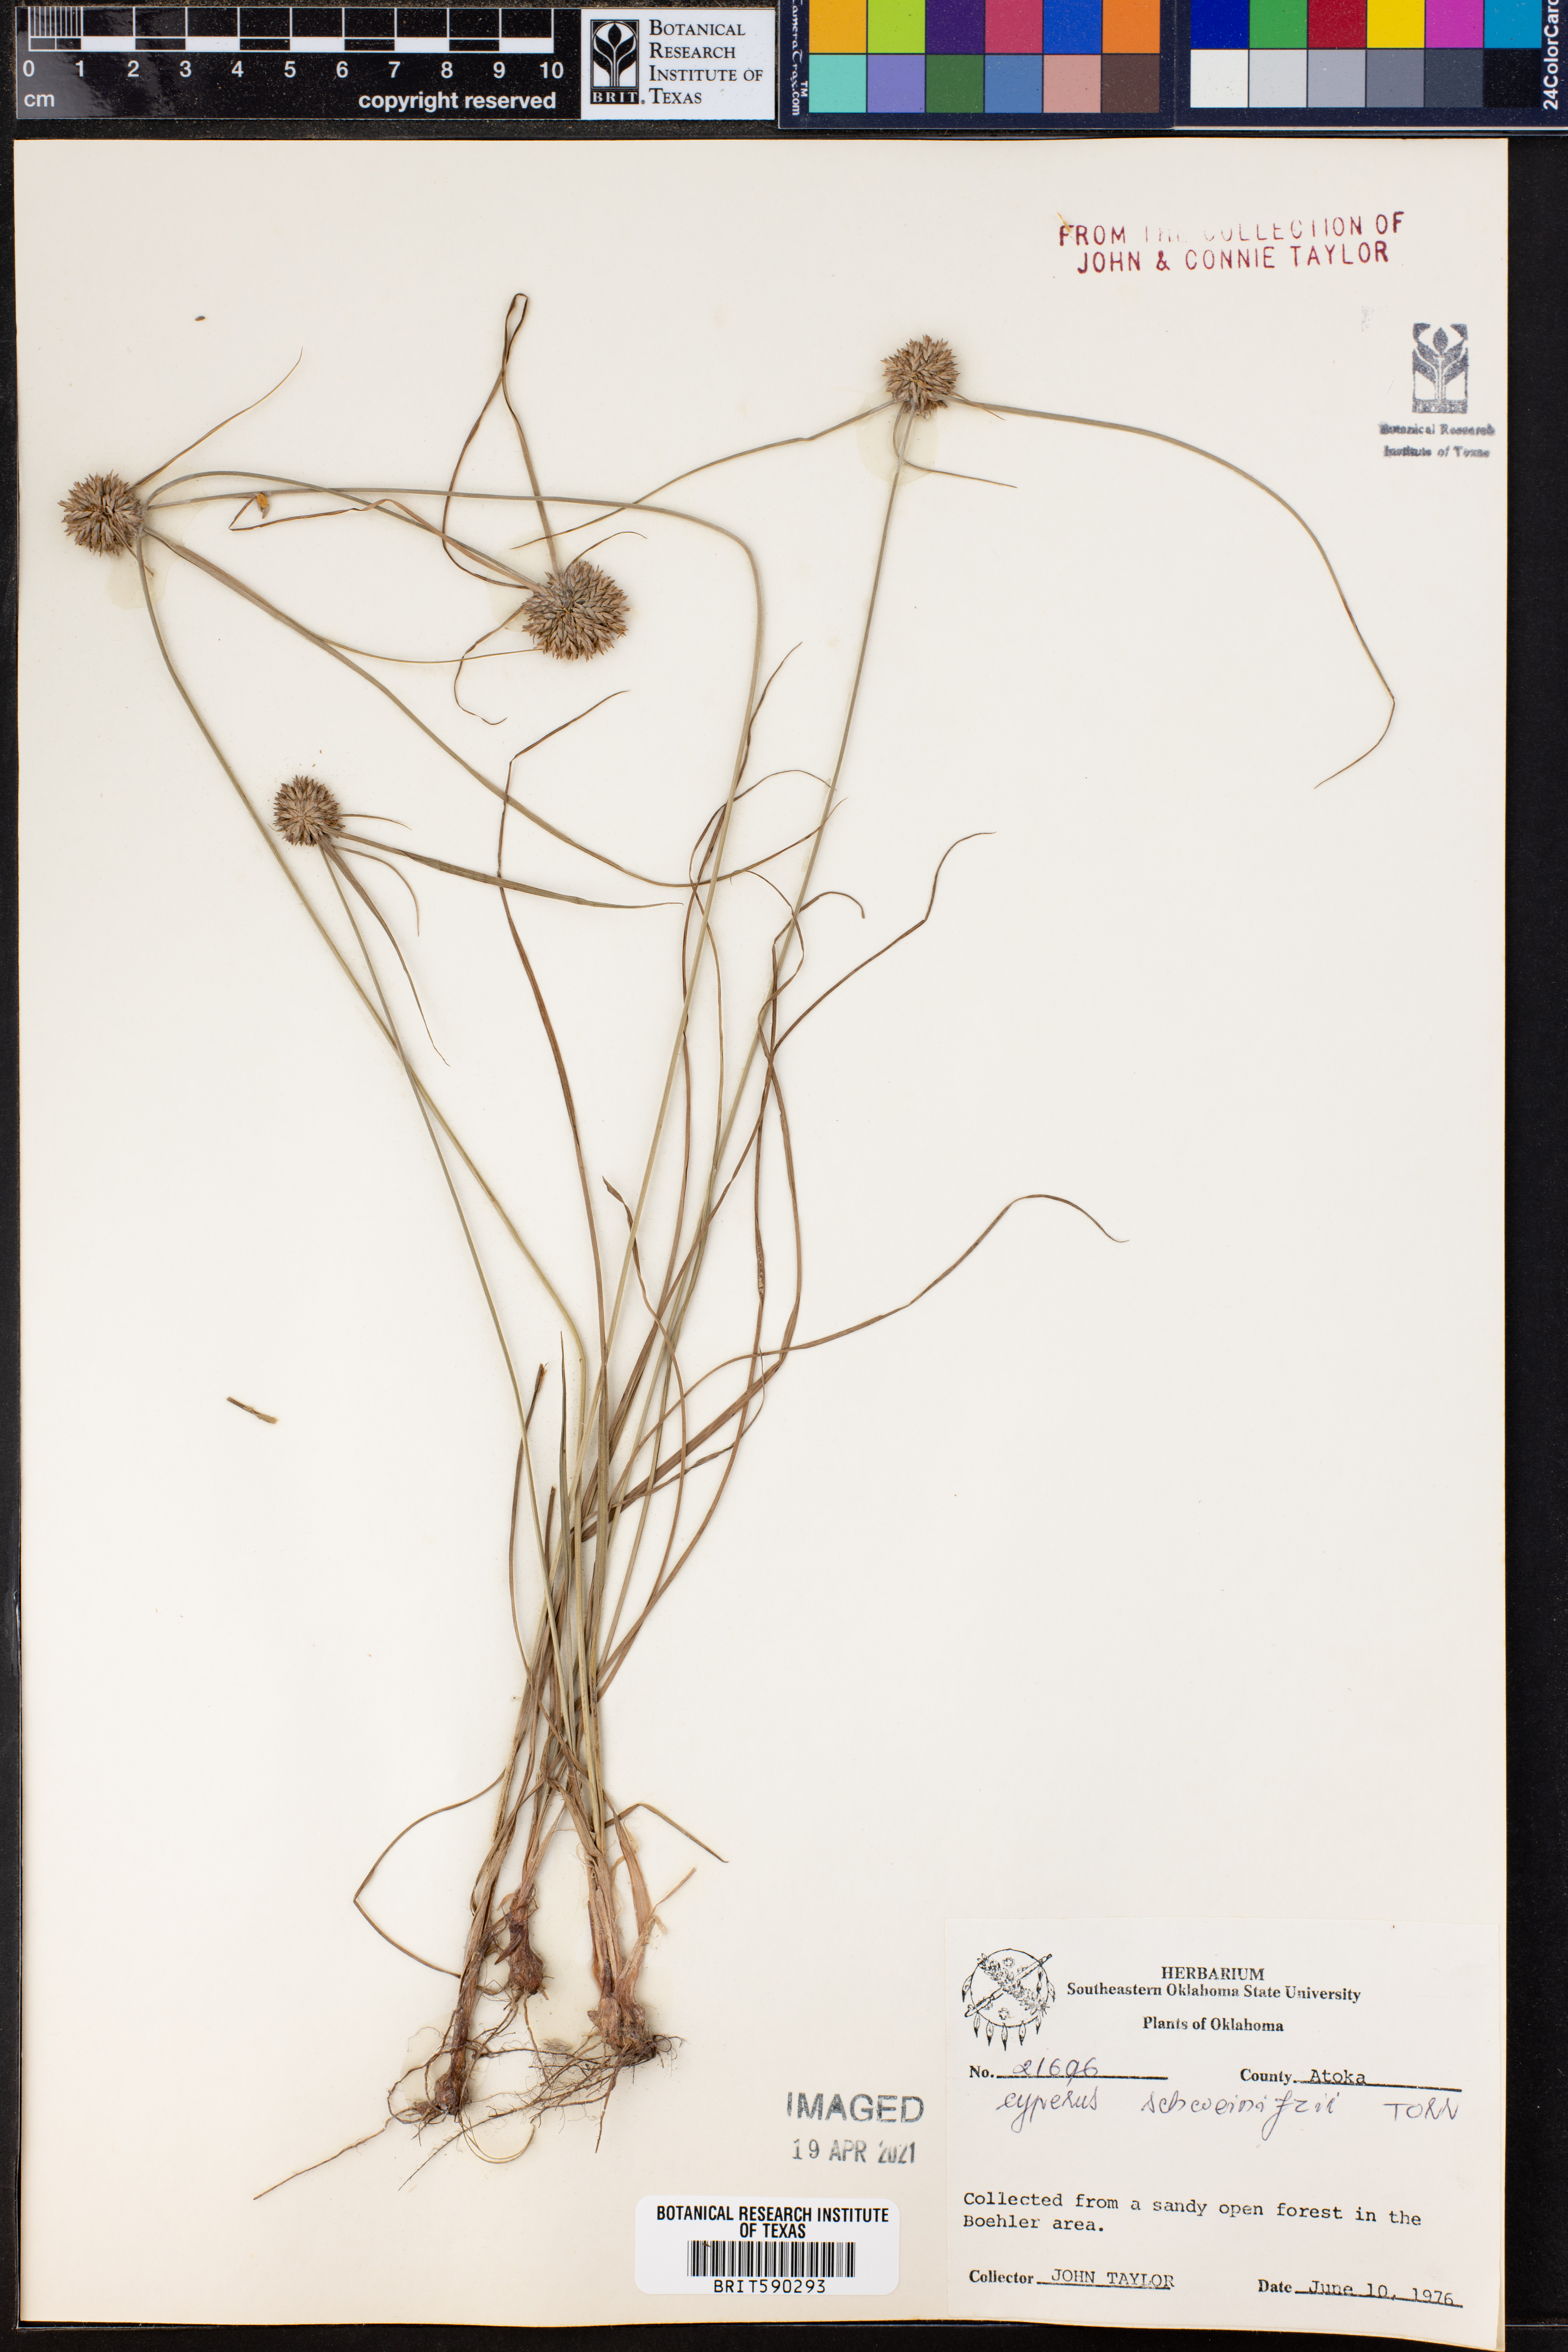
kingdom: Plantae
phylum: Tracheophyta
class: Liliopsida
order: Poales
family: Cyperaceae
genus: Cyperus
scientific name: Cyperus schweinitzii
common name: Schweinitz's cyperus
